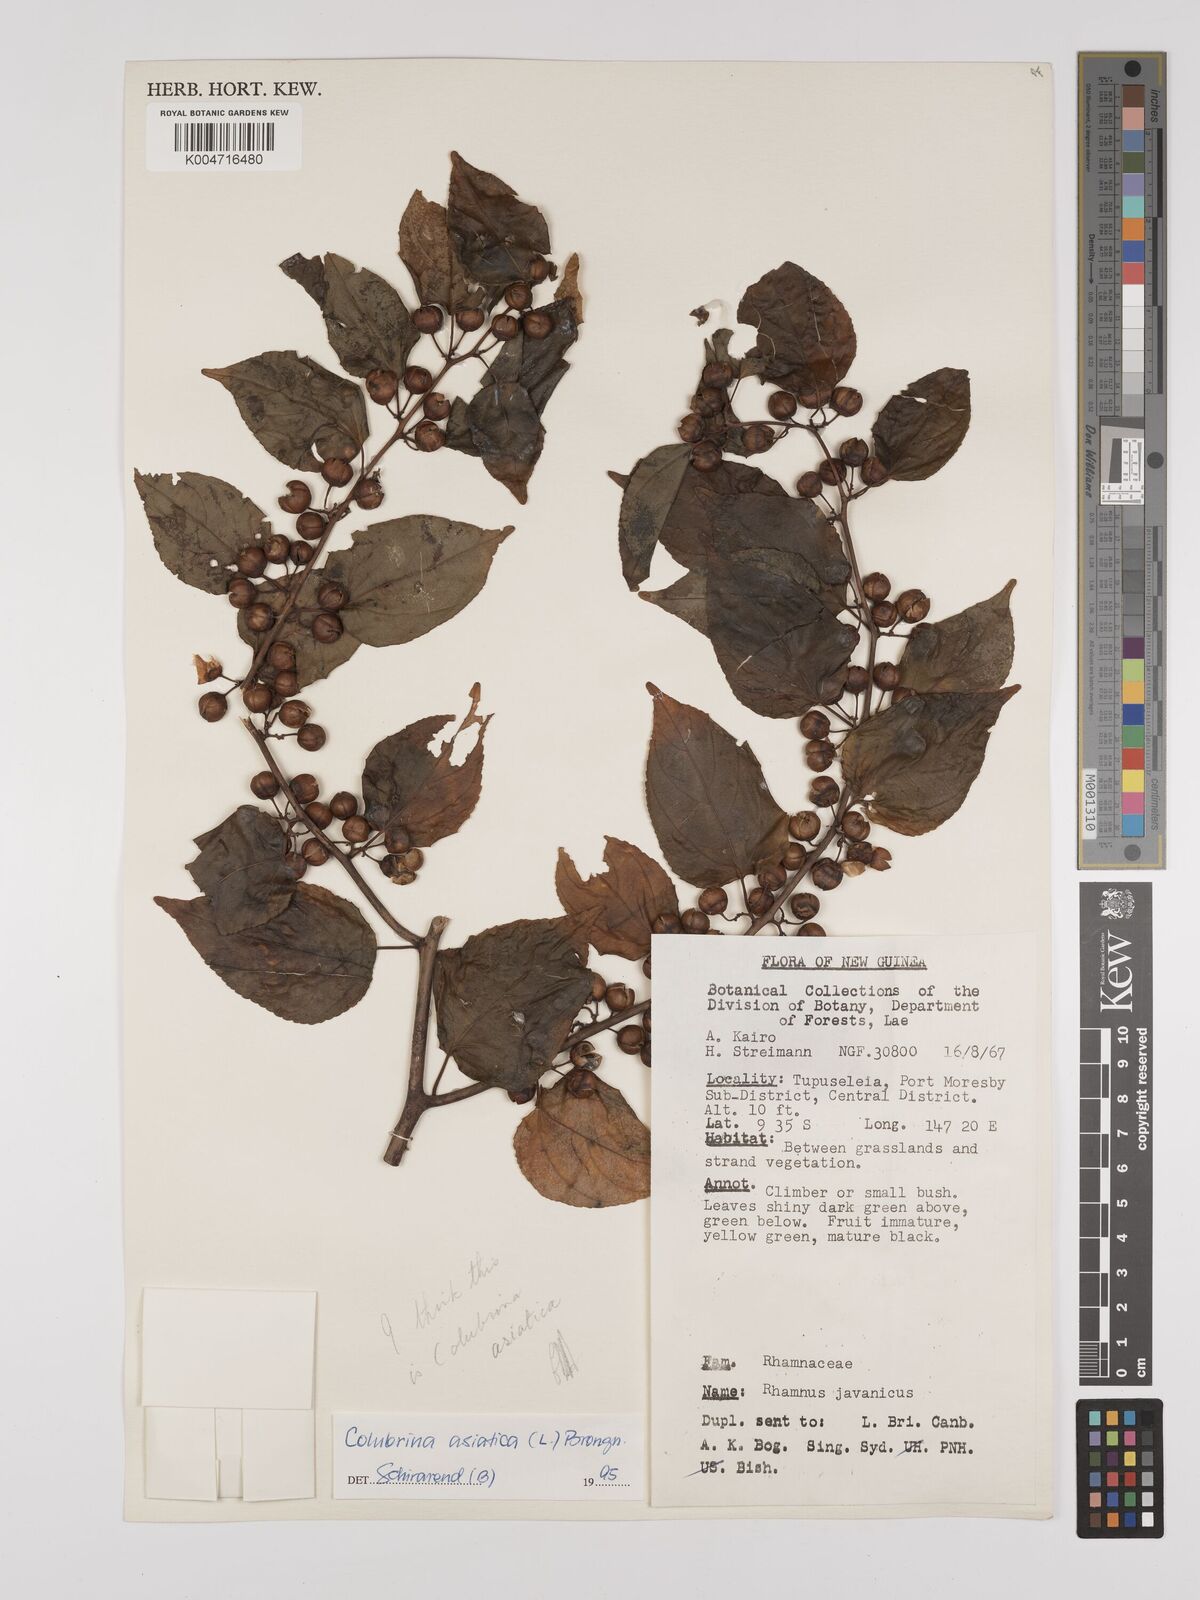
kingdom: Plantae
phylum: Tracheophyta
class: Magnoliopsida
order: Rosales
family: Rhamnaceae
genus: Colubrina
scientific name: Colubrina asiatica
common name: Asian nakedwood
